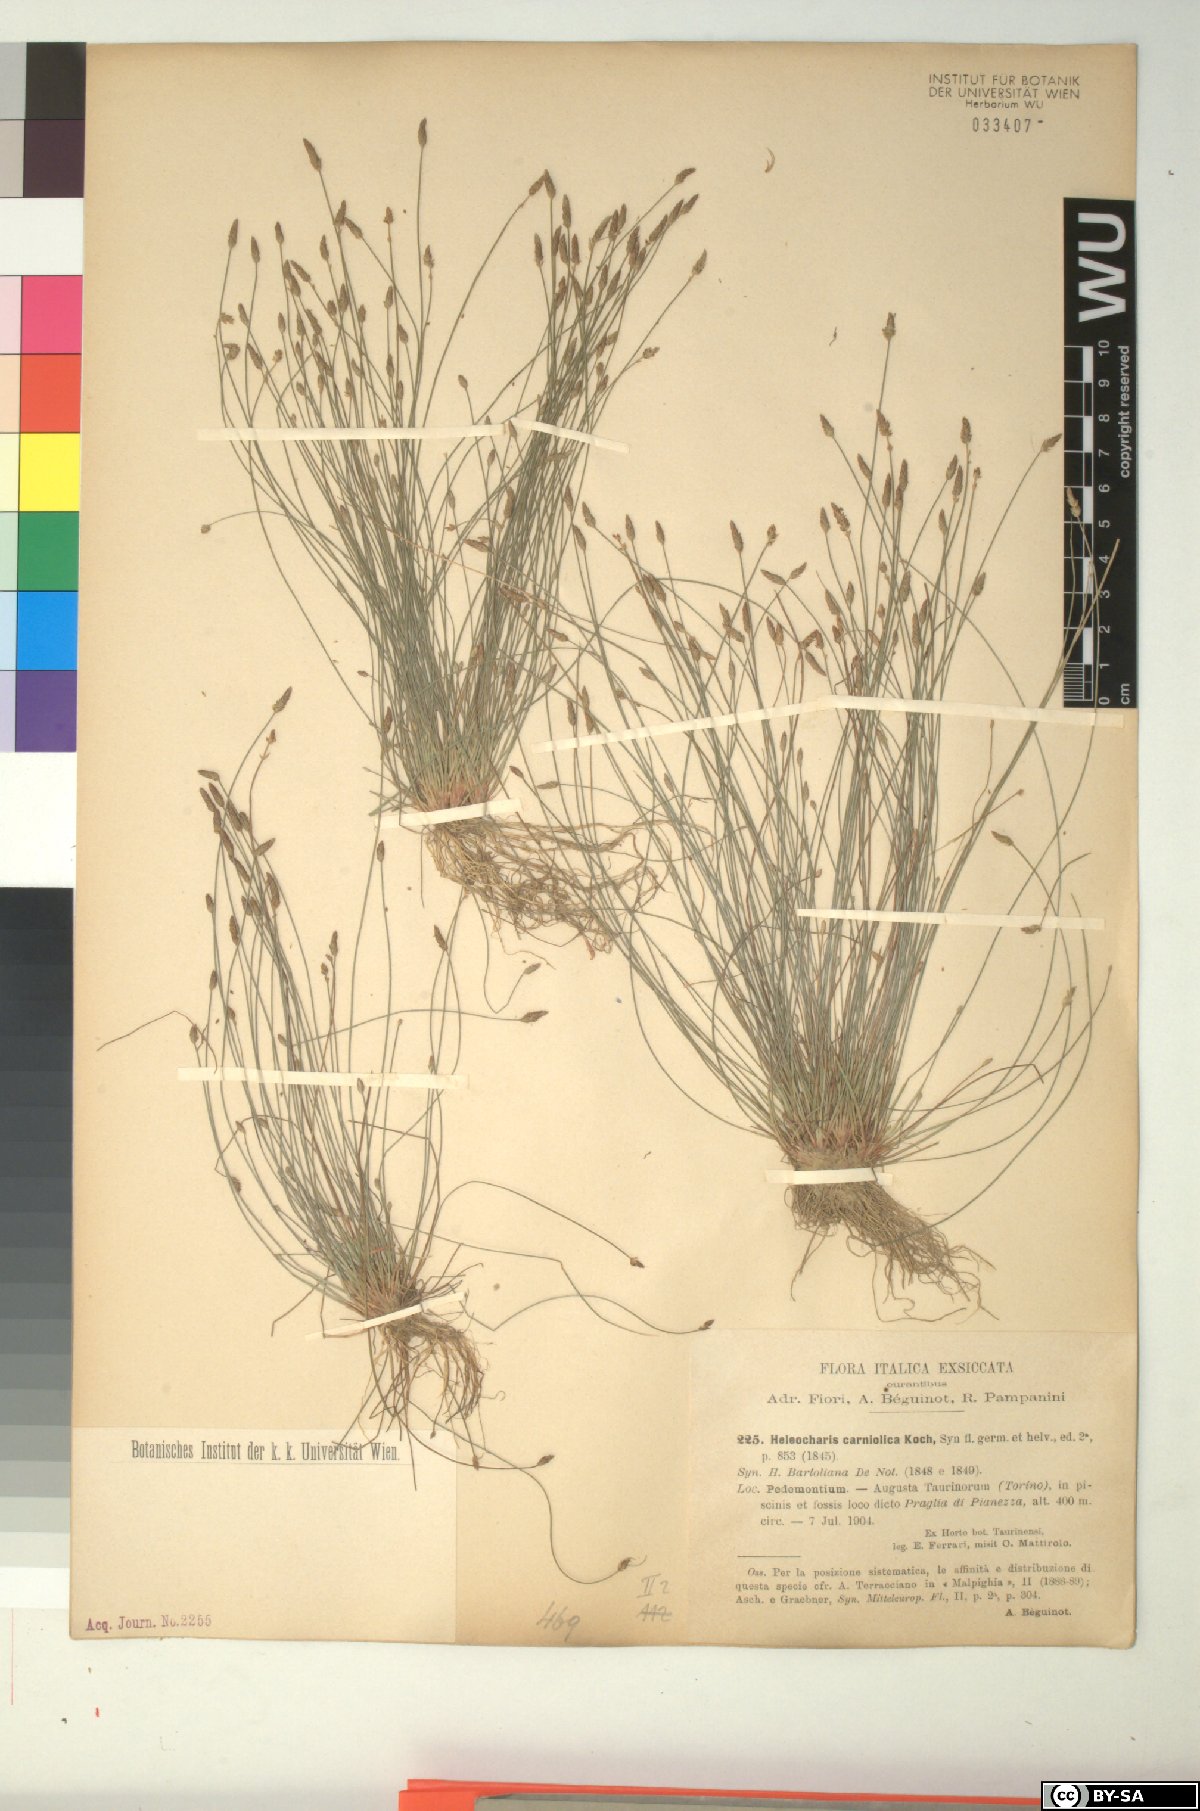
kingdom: Plantae
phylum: Tracheophyta
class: Liliopsida
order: Poales
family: Cyperaceae
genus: Eleocharis
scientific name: Eleocharis carniolica
